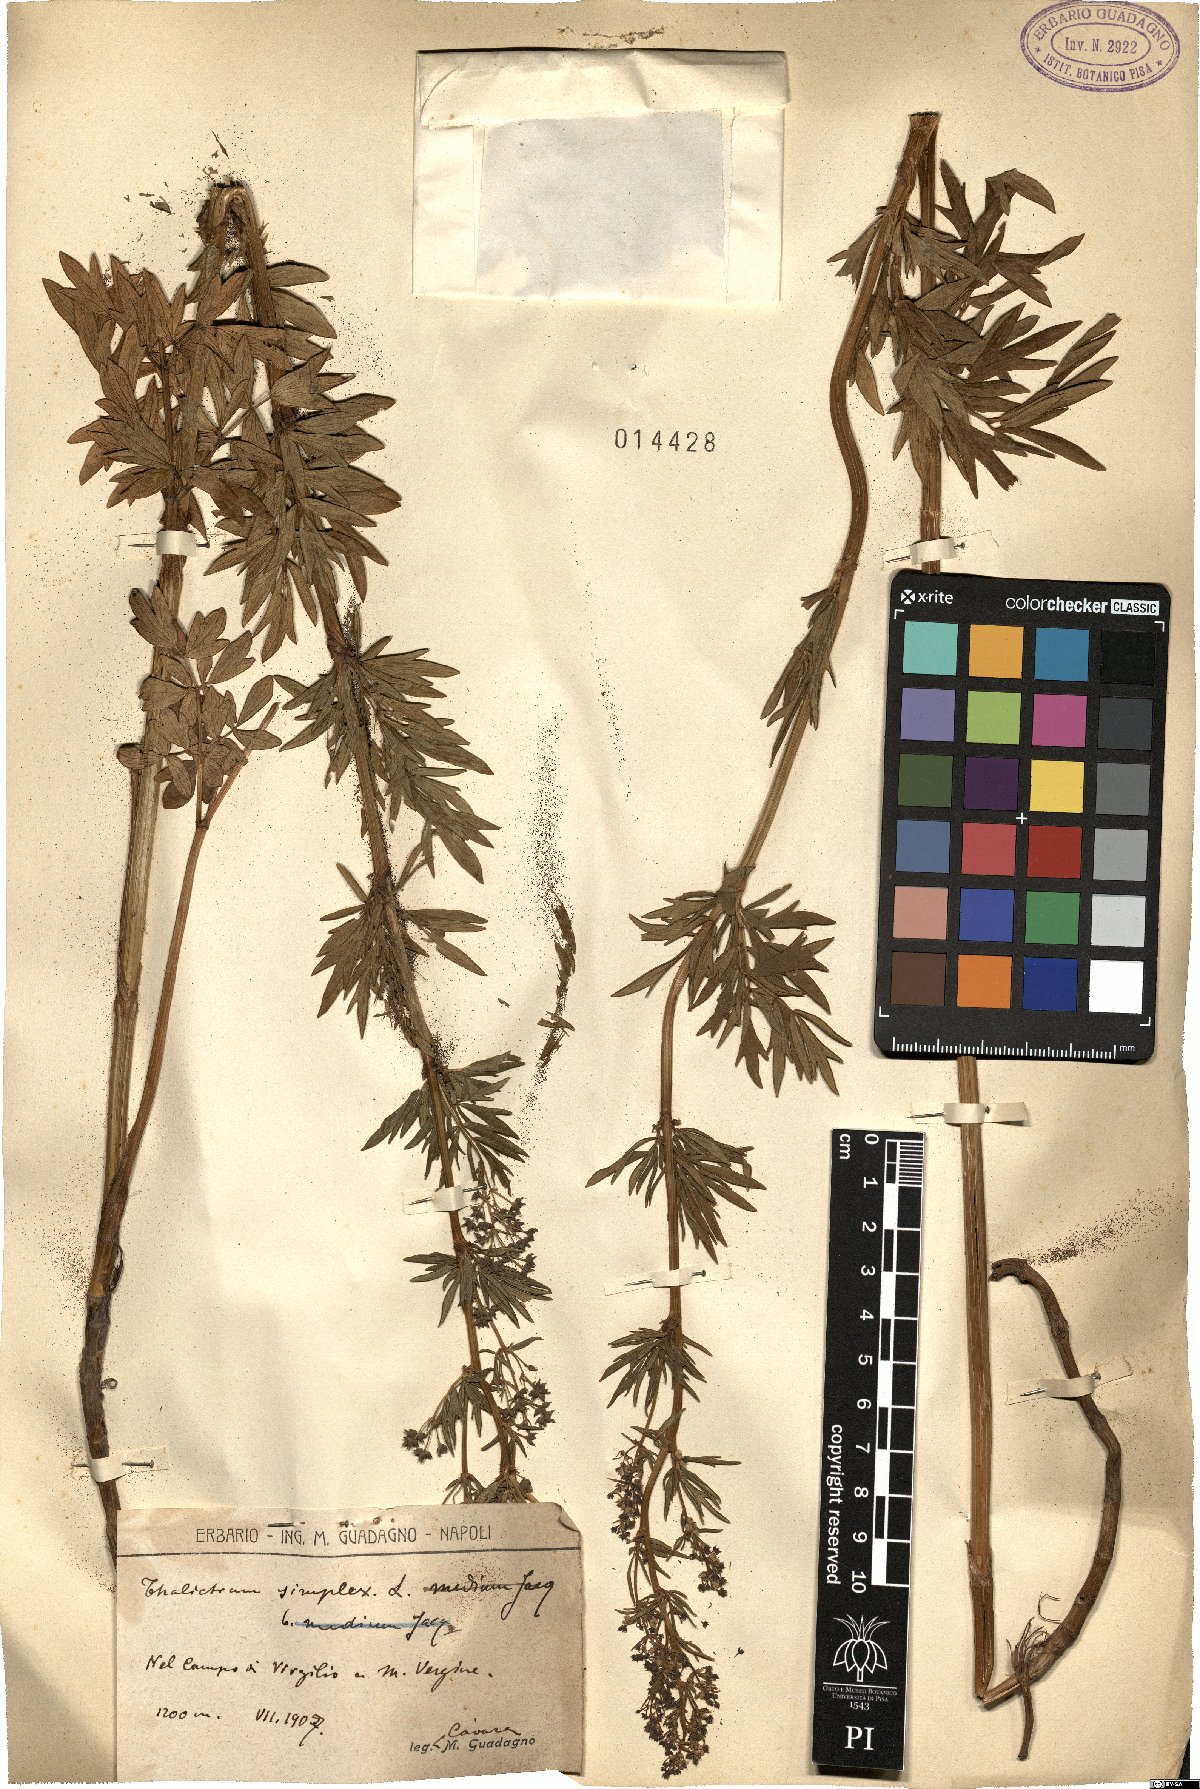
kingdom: Plantae
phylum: Tracheophyta
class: Magnoliopsida
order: Ranunculales
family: Ranunculaceae
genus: Thalictrum
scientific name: Thalictrum simplex
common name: Small meadow-rue
